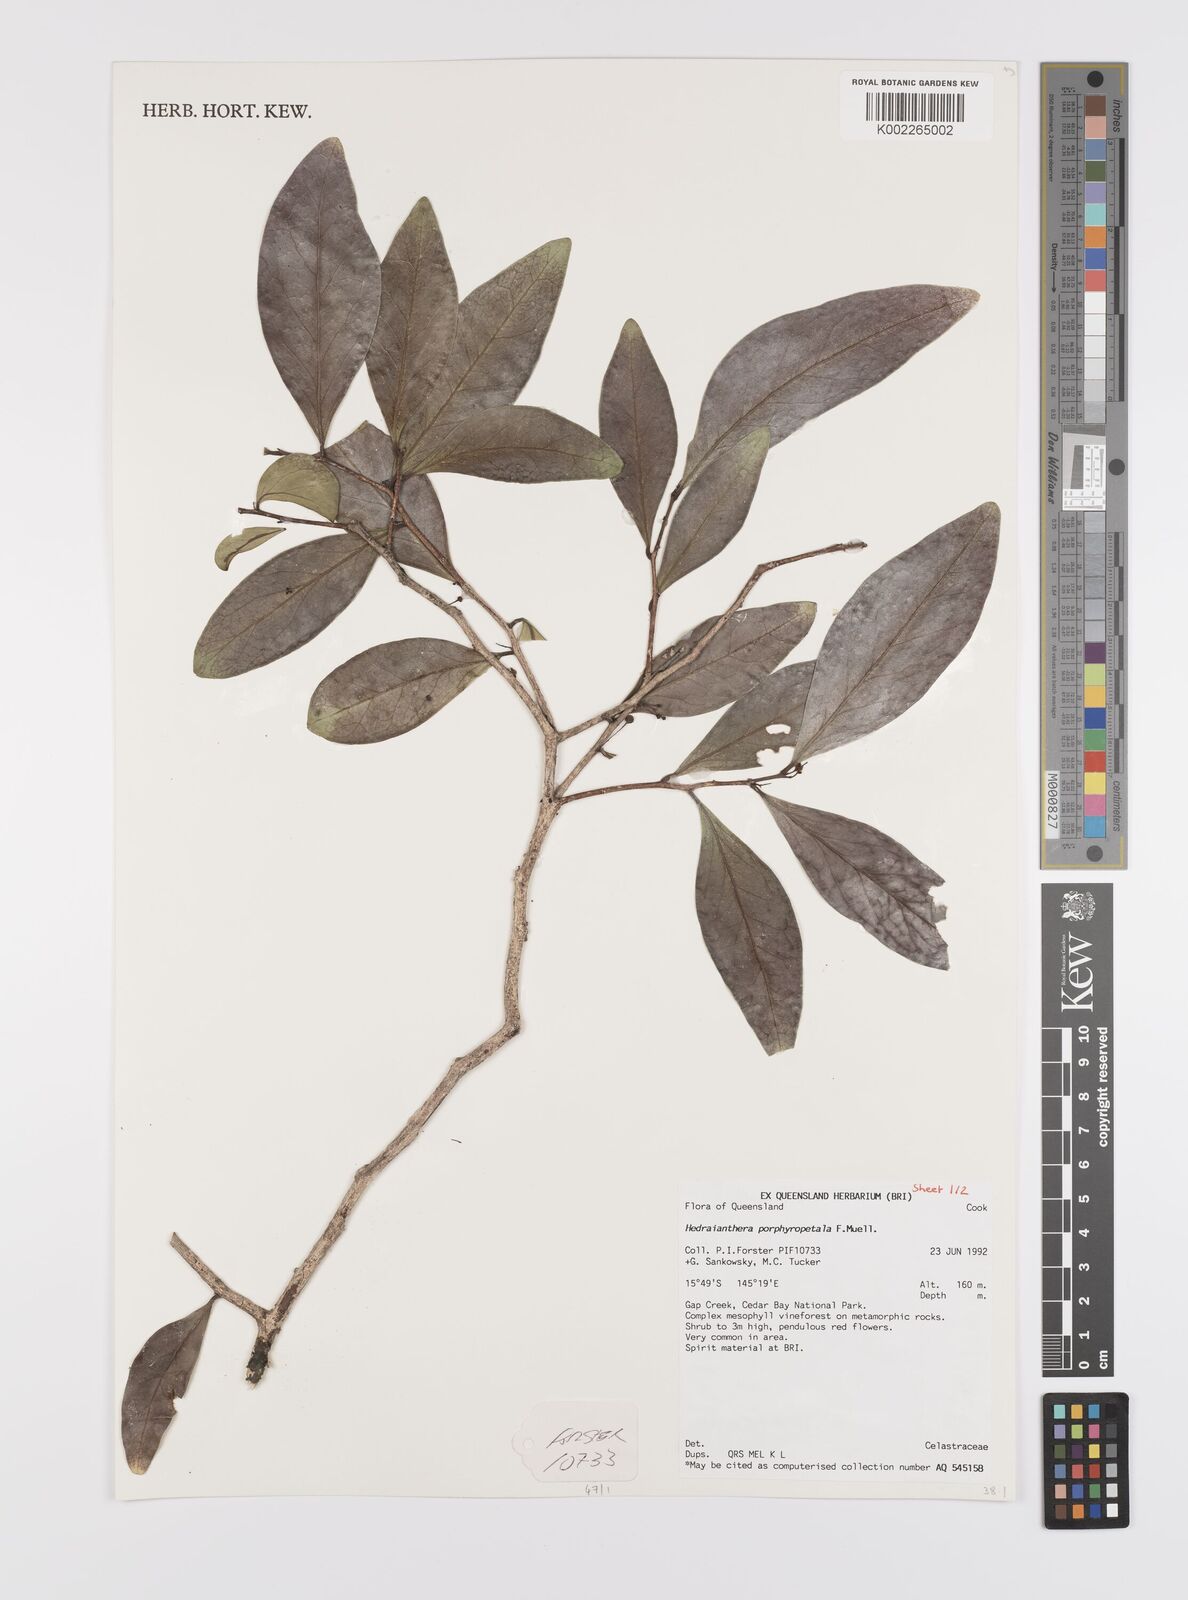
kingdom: Plantae
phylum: Tracheophyta
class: Magnoliopsida
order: Celastrales
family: Celastraceae
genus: Hedraianthera
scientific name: Hedraianthera porphyropetala
